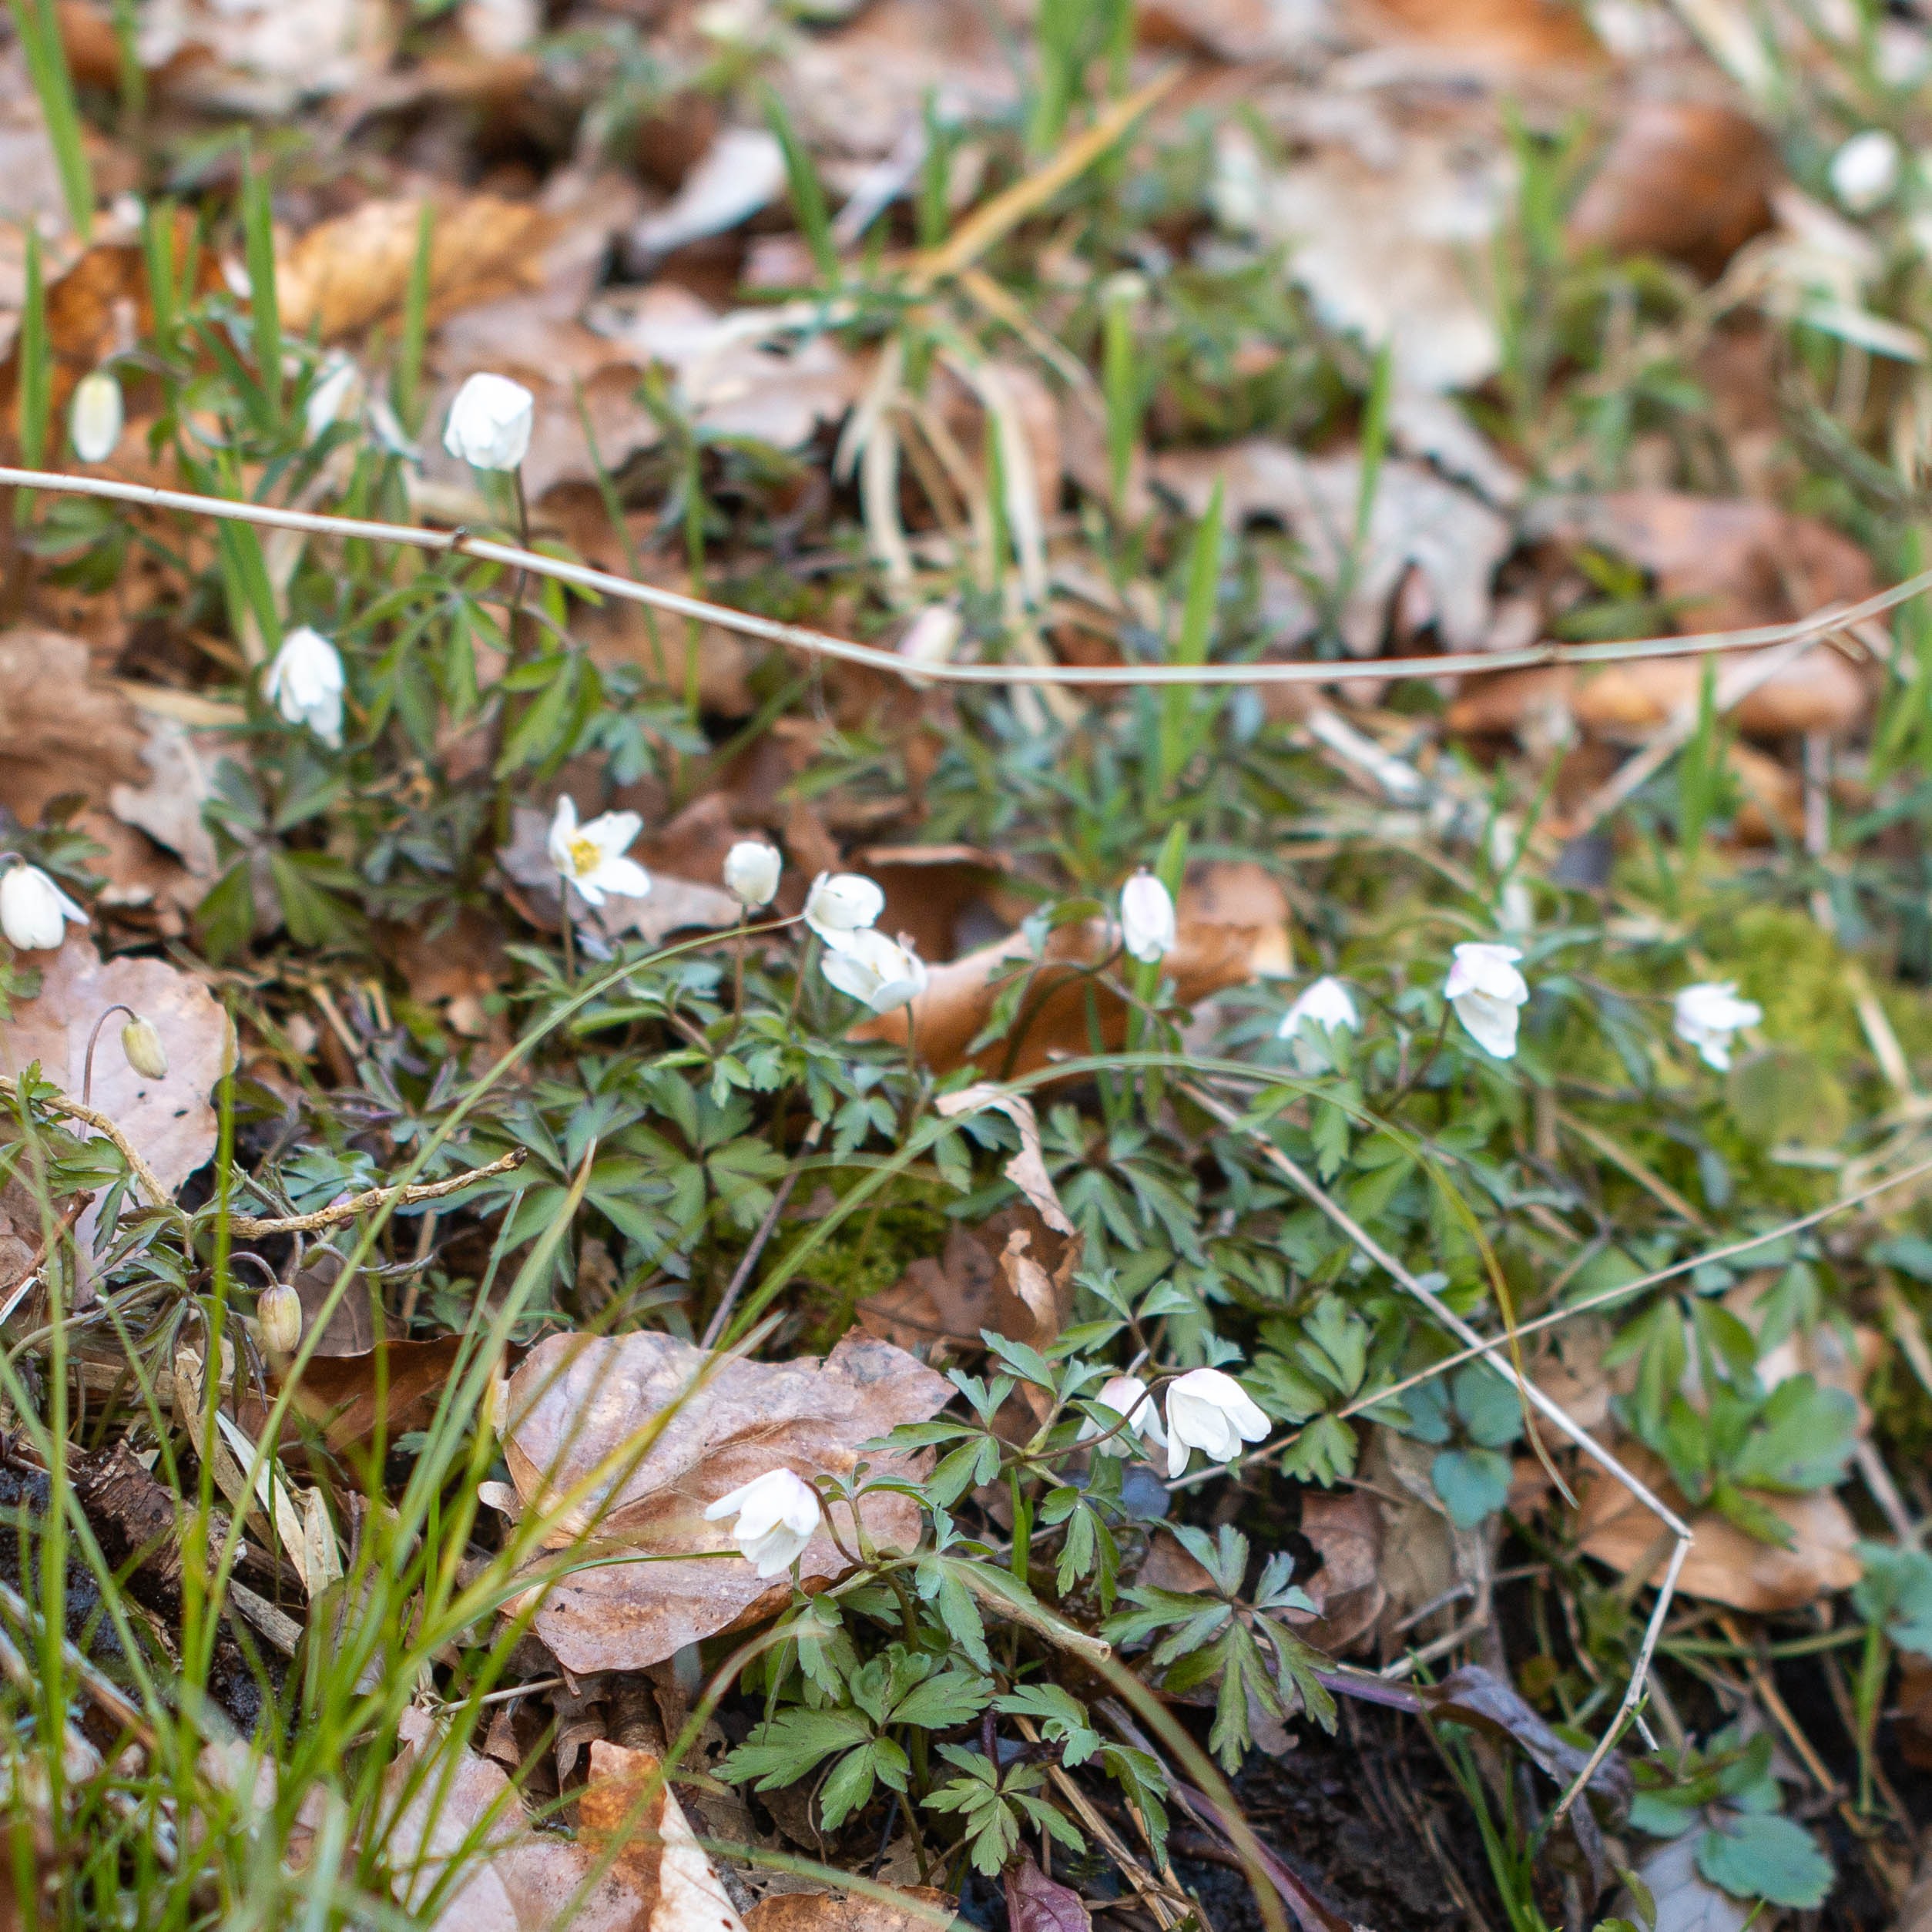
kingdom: Plantae
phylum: Tracheophyta
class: Magnoliopsida
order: Ranunculales
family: Ranunculaceae
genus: Anemone
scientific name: Anemone nemorosa
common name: Hvid anemone
